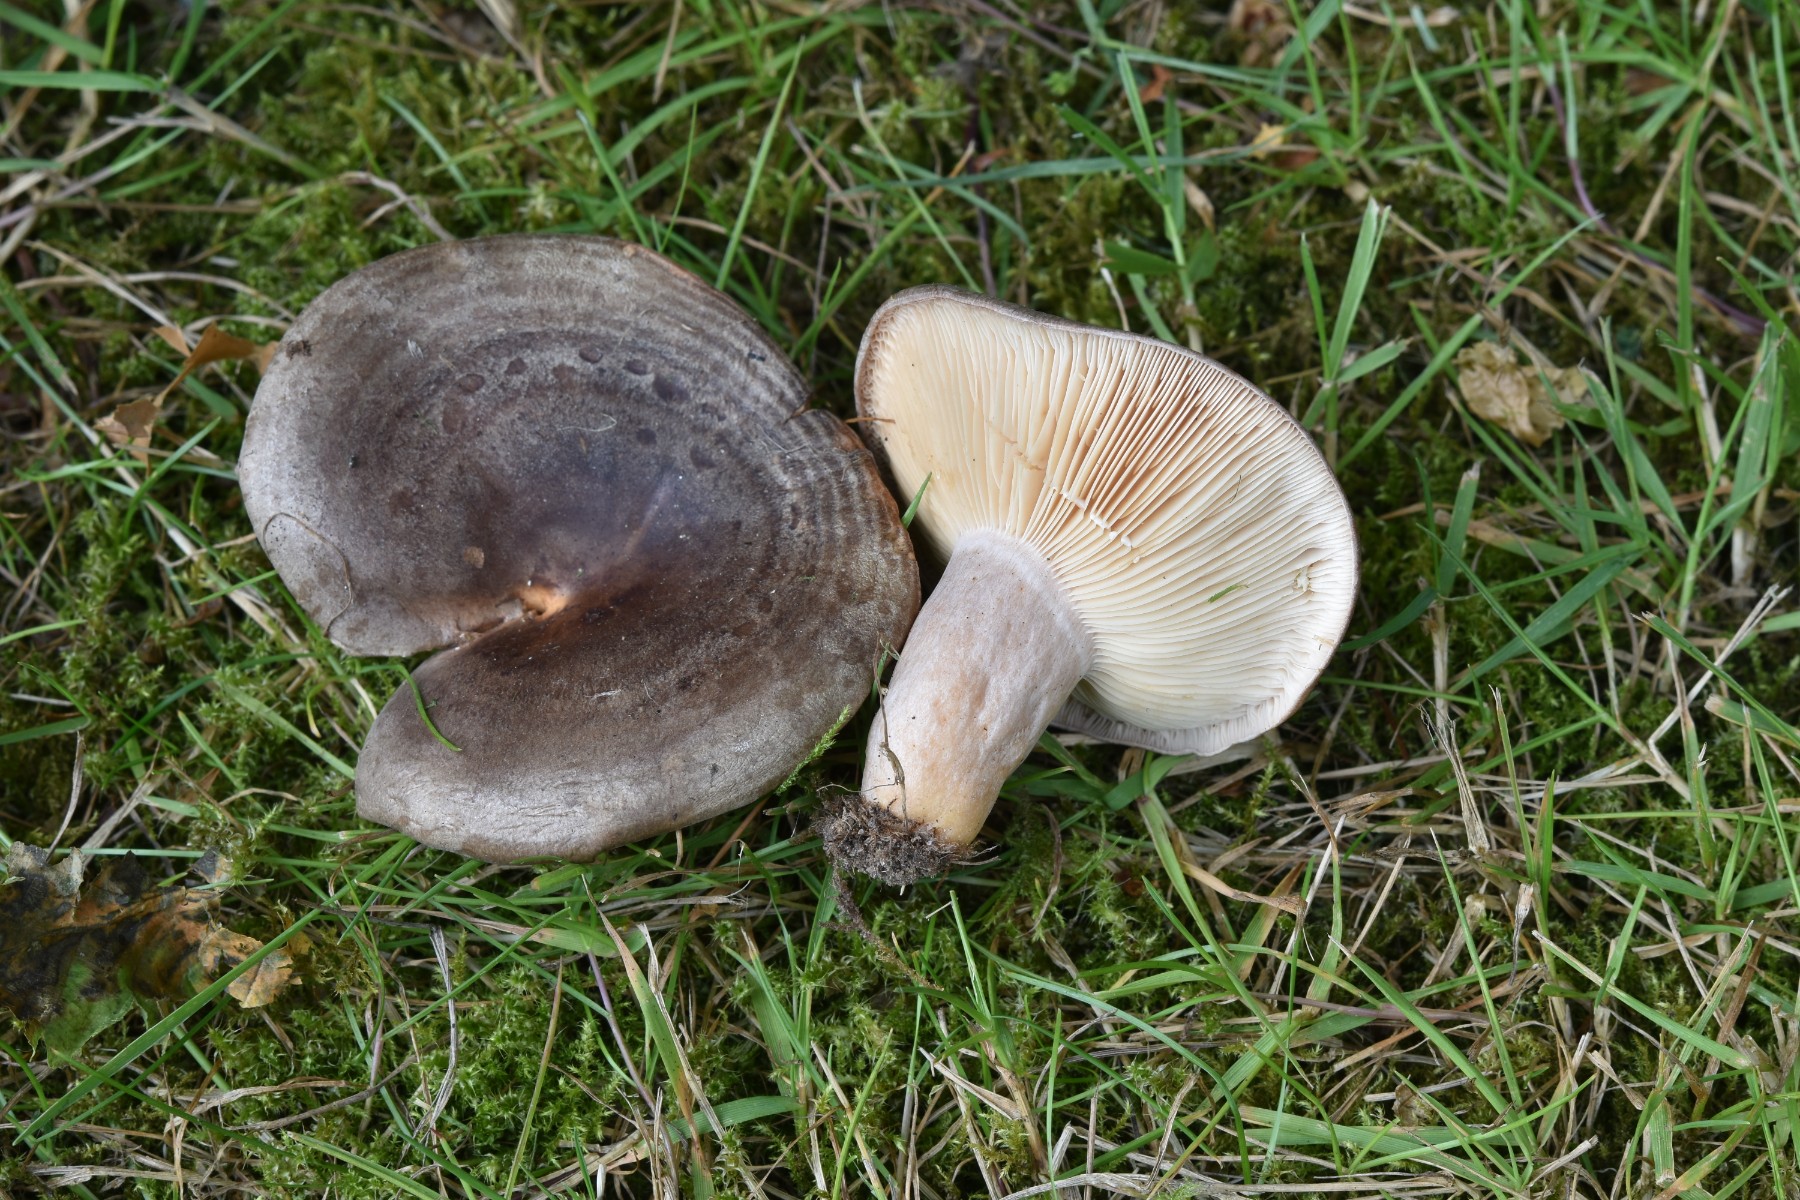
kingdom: Fungi
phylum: Basidiomycota
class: Agaricomycetes
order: Russulales
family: Russulaceae
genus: Lactarius
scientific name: Lactarius circellatus
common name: avnbøg-mælkehat
